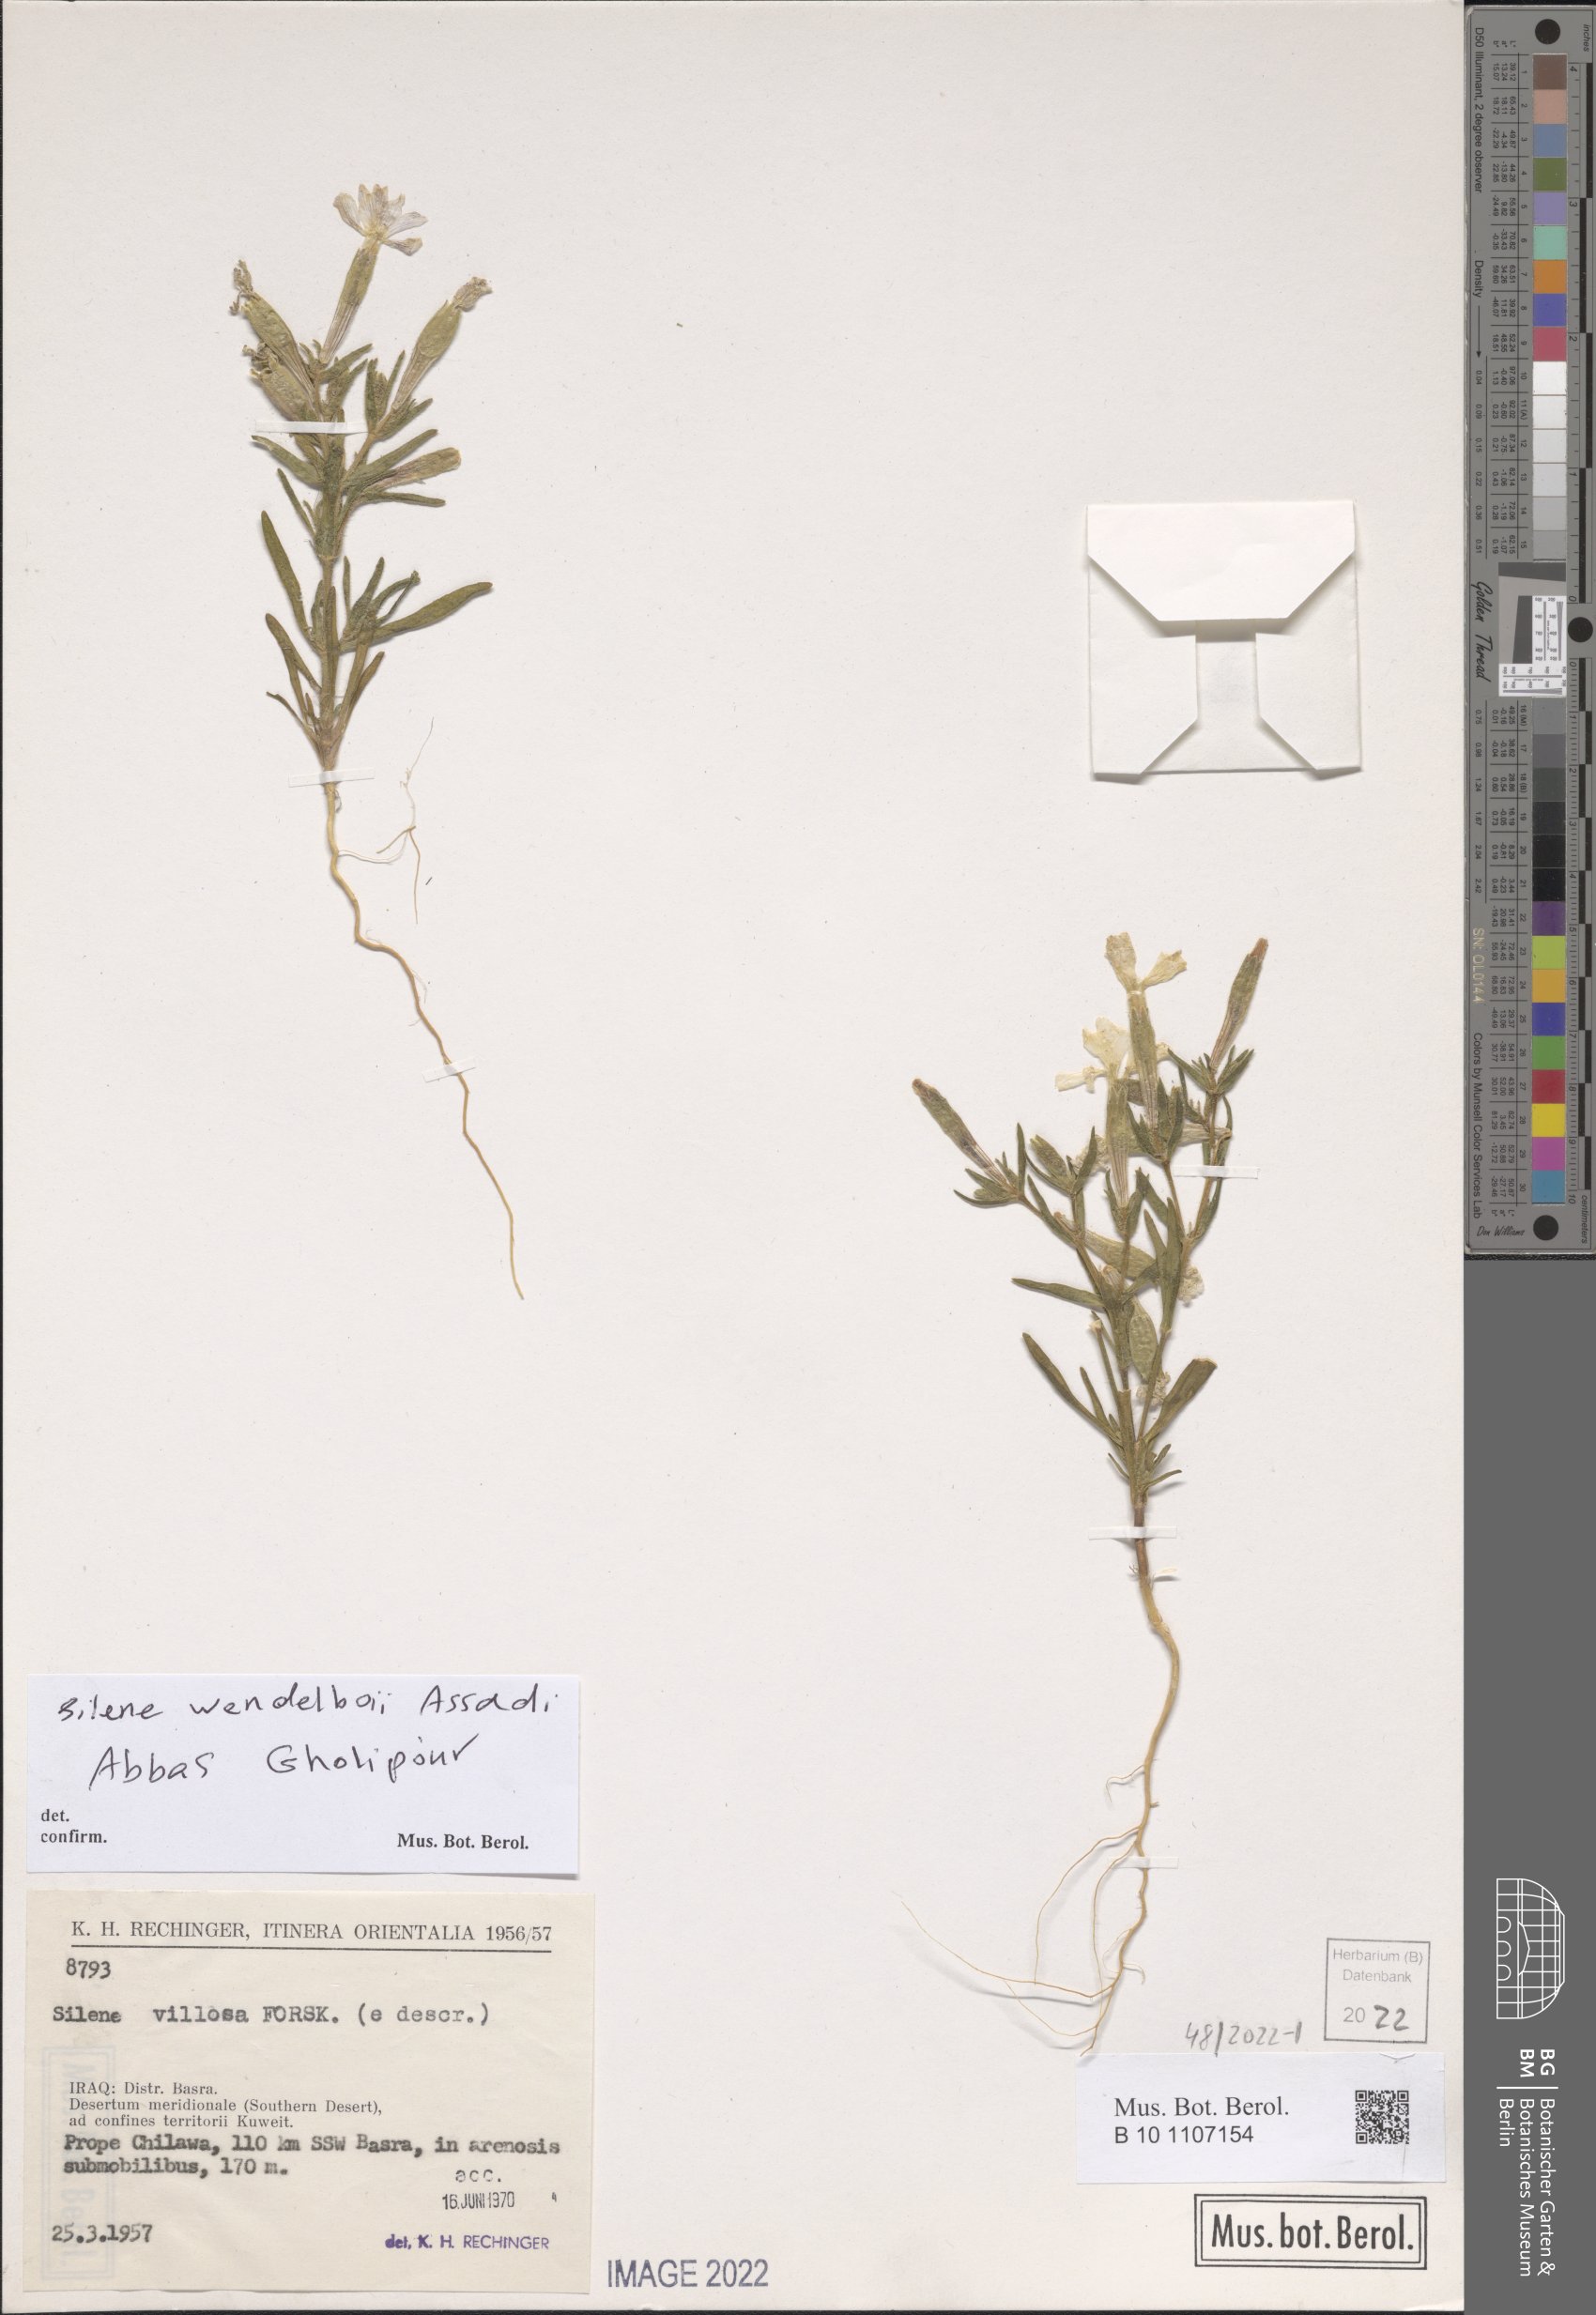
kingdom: Plantae
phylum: Tracheophyta
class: Magnoliopsida
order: Caryophyllales
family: Caryophyllaceae
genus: Silene
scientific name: Silene wendelboi
